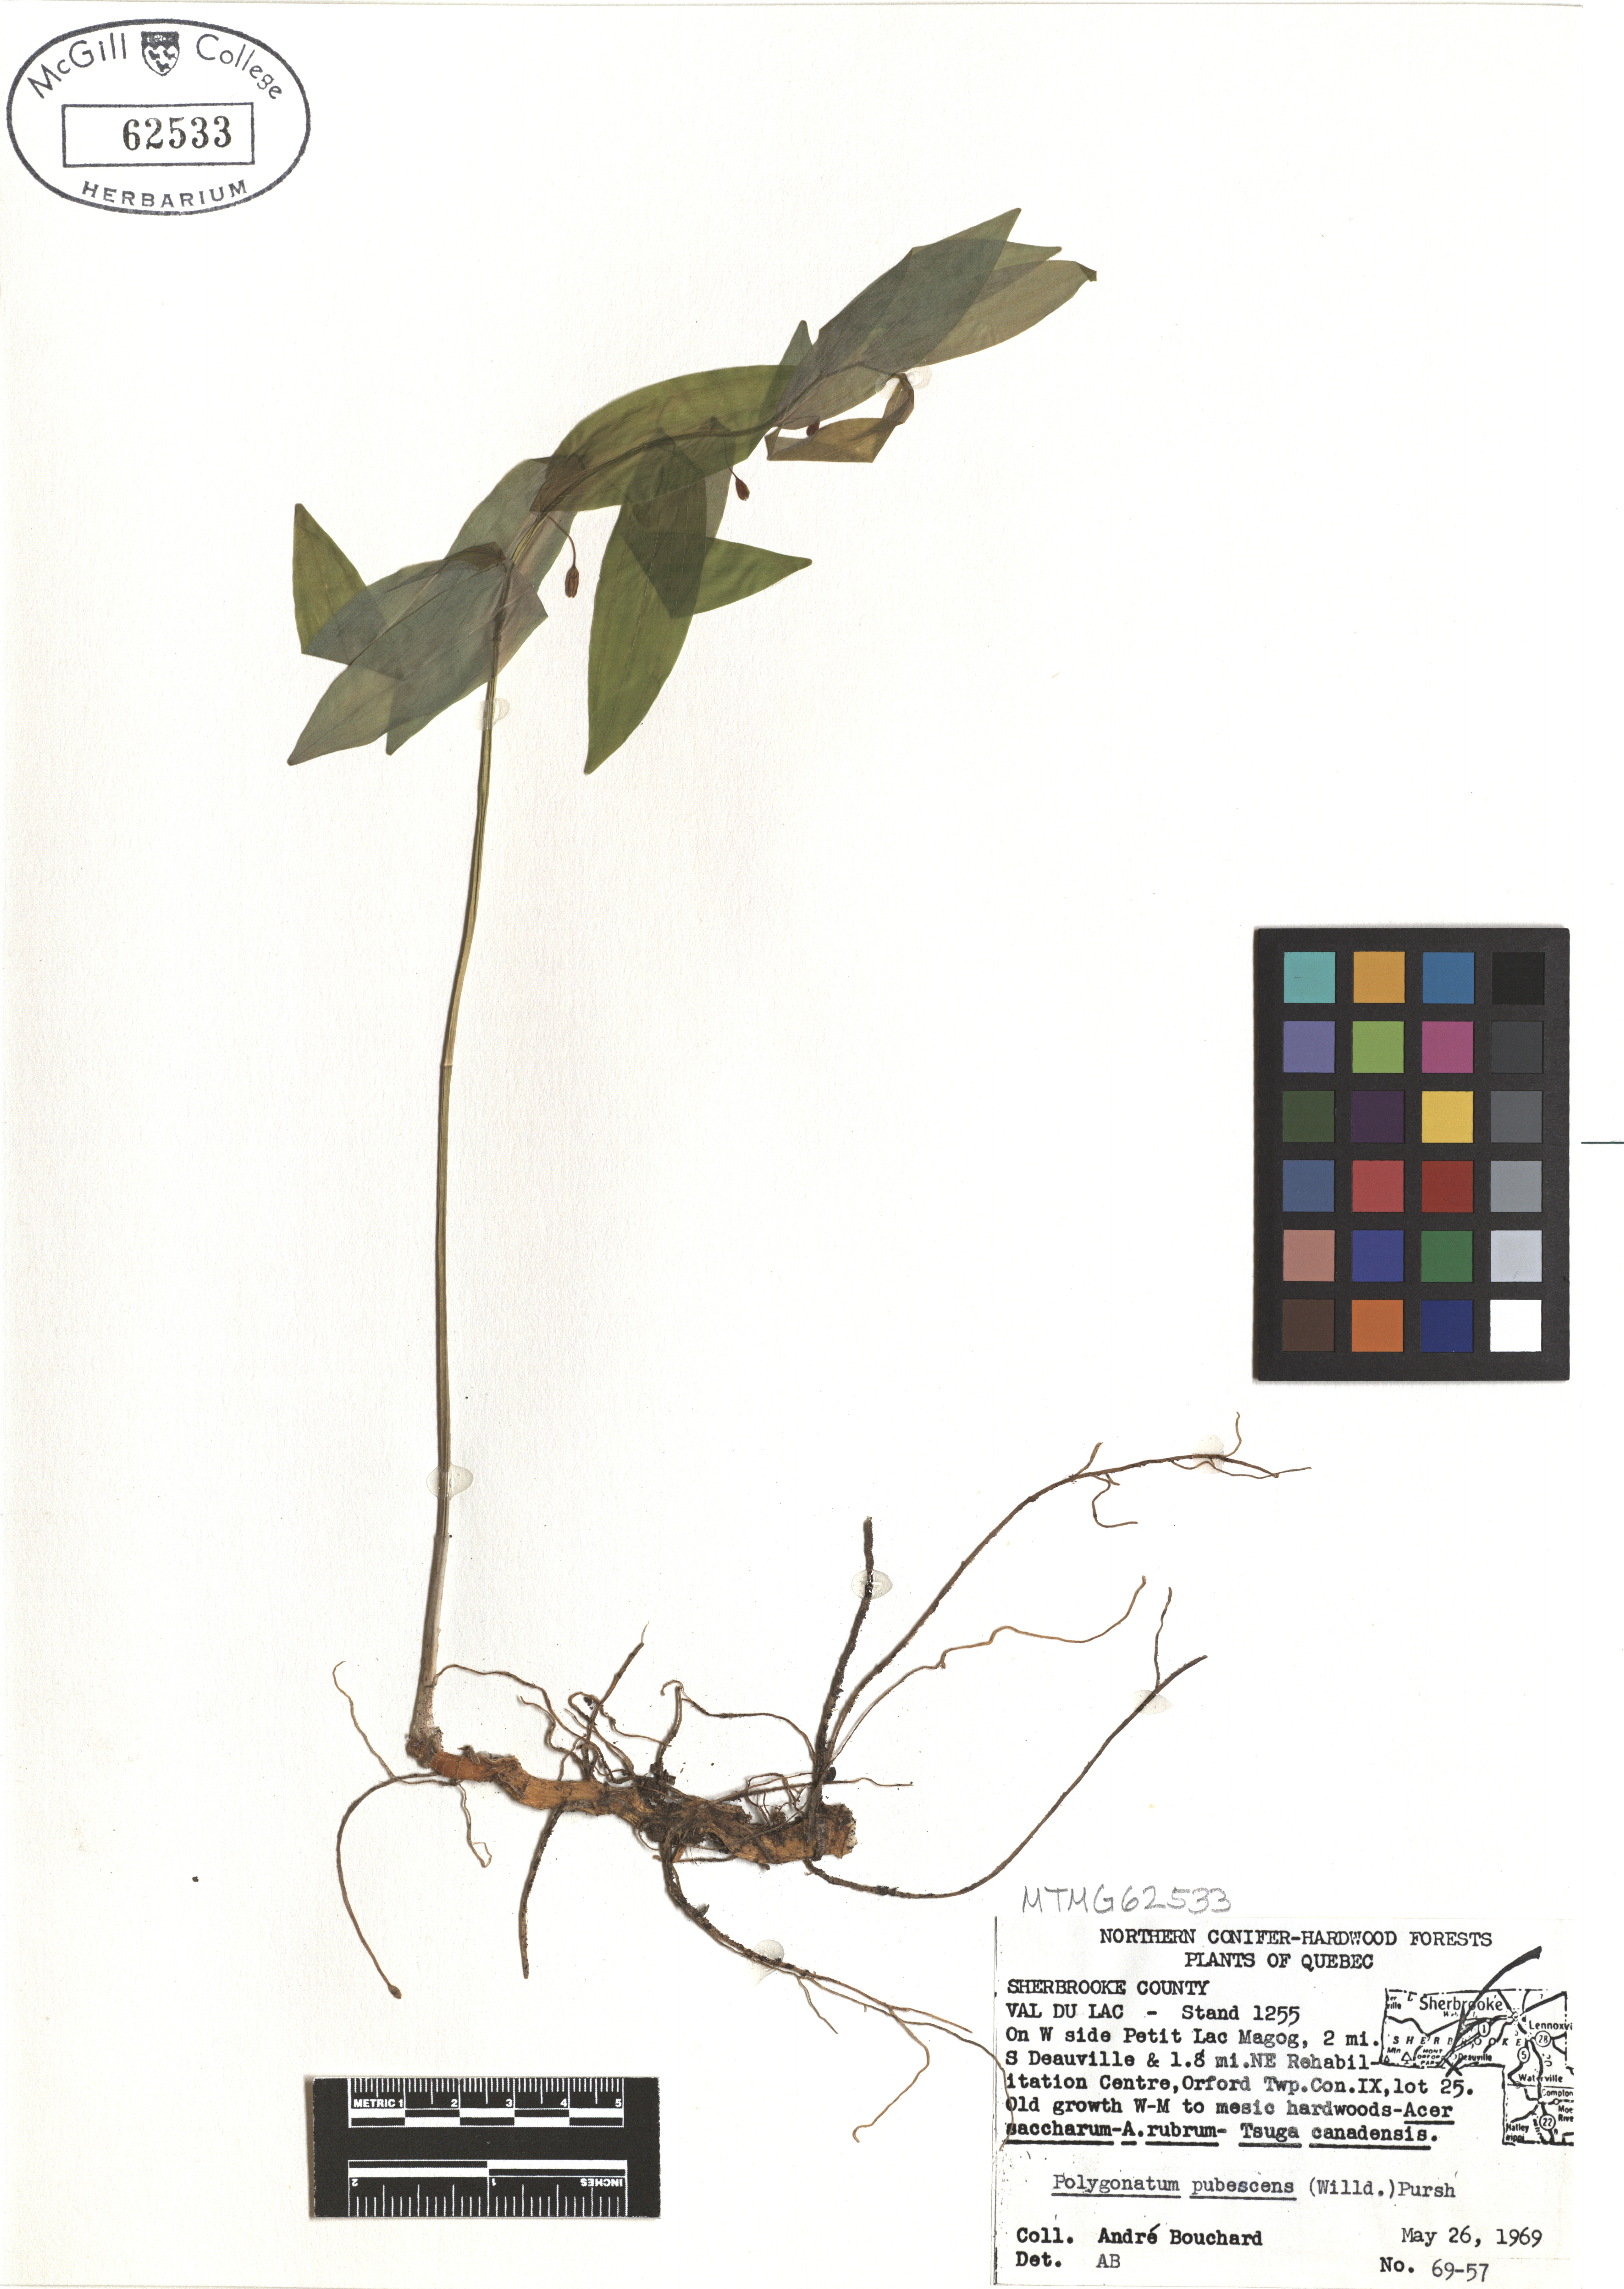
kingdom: Plantae
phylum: Tracheophyta
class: Liliopsida
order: Asparagales
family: Asparagaceae
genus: Polygonatum
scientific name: Polygonatum pubescens
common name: Downy solomon's seal
